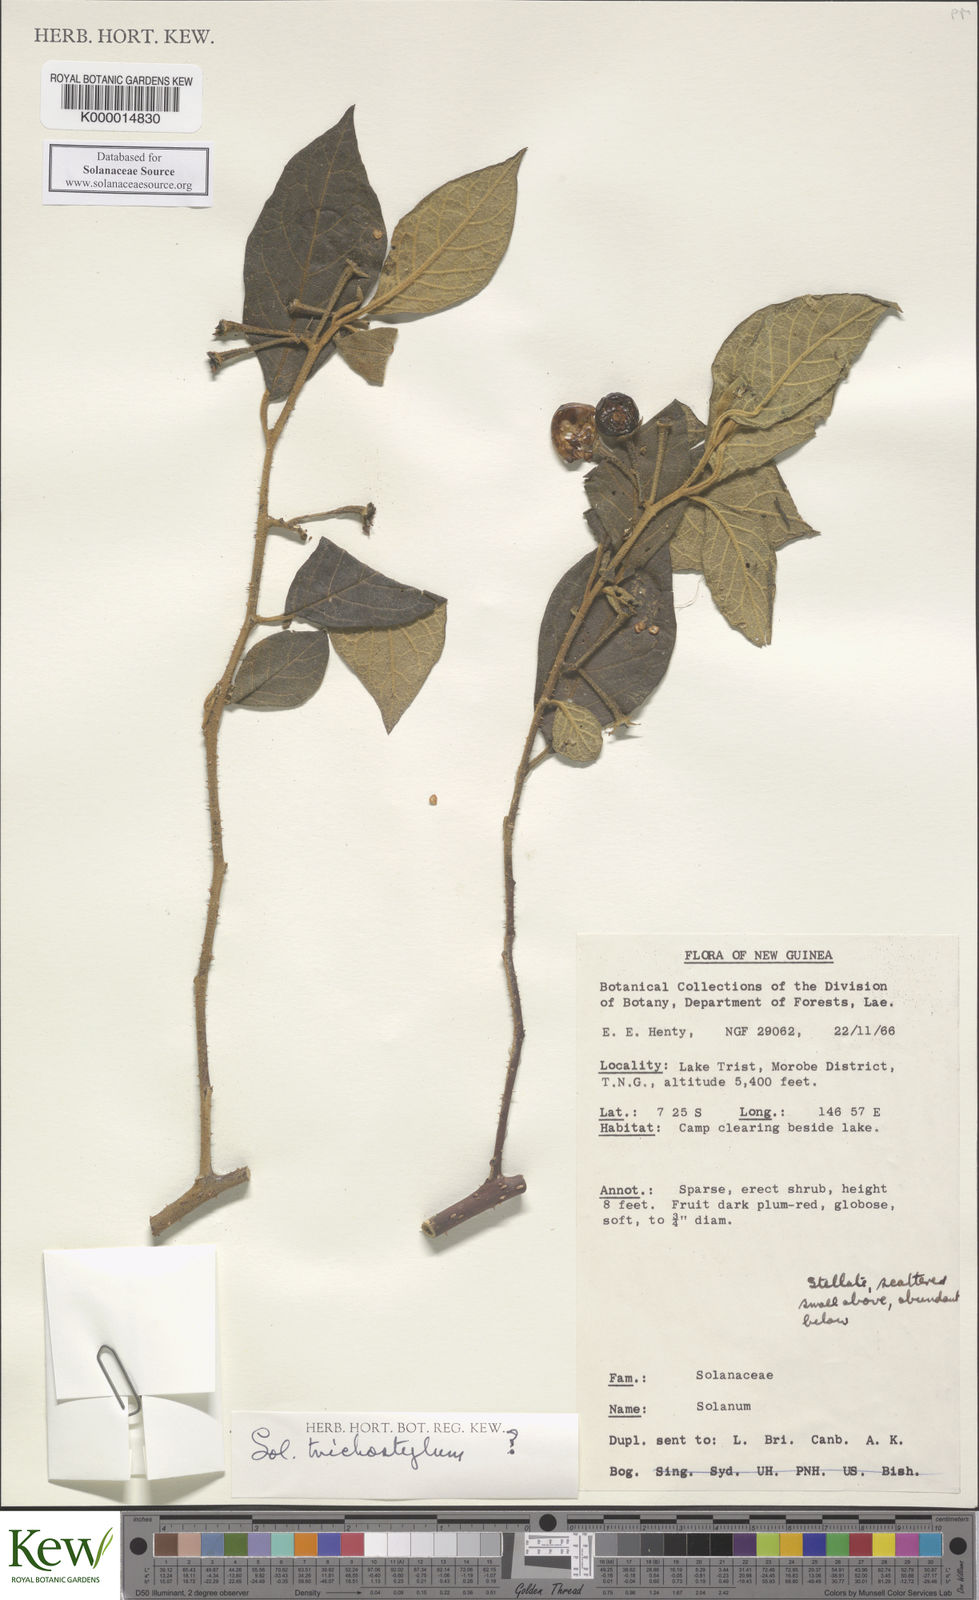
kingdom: Plantae
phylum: Tracheophyta
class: Magnoliopsida
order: Solanales
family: Solanaceae
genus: Solanum
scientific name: Solanum trichostylum
